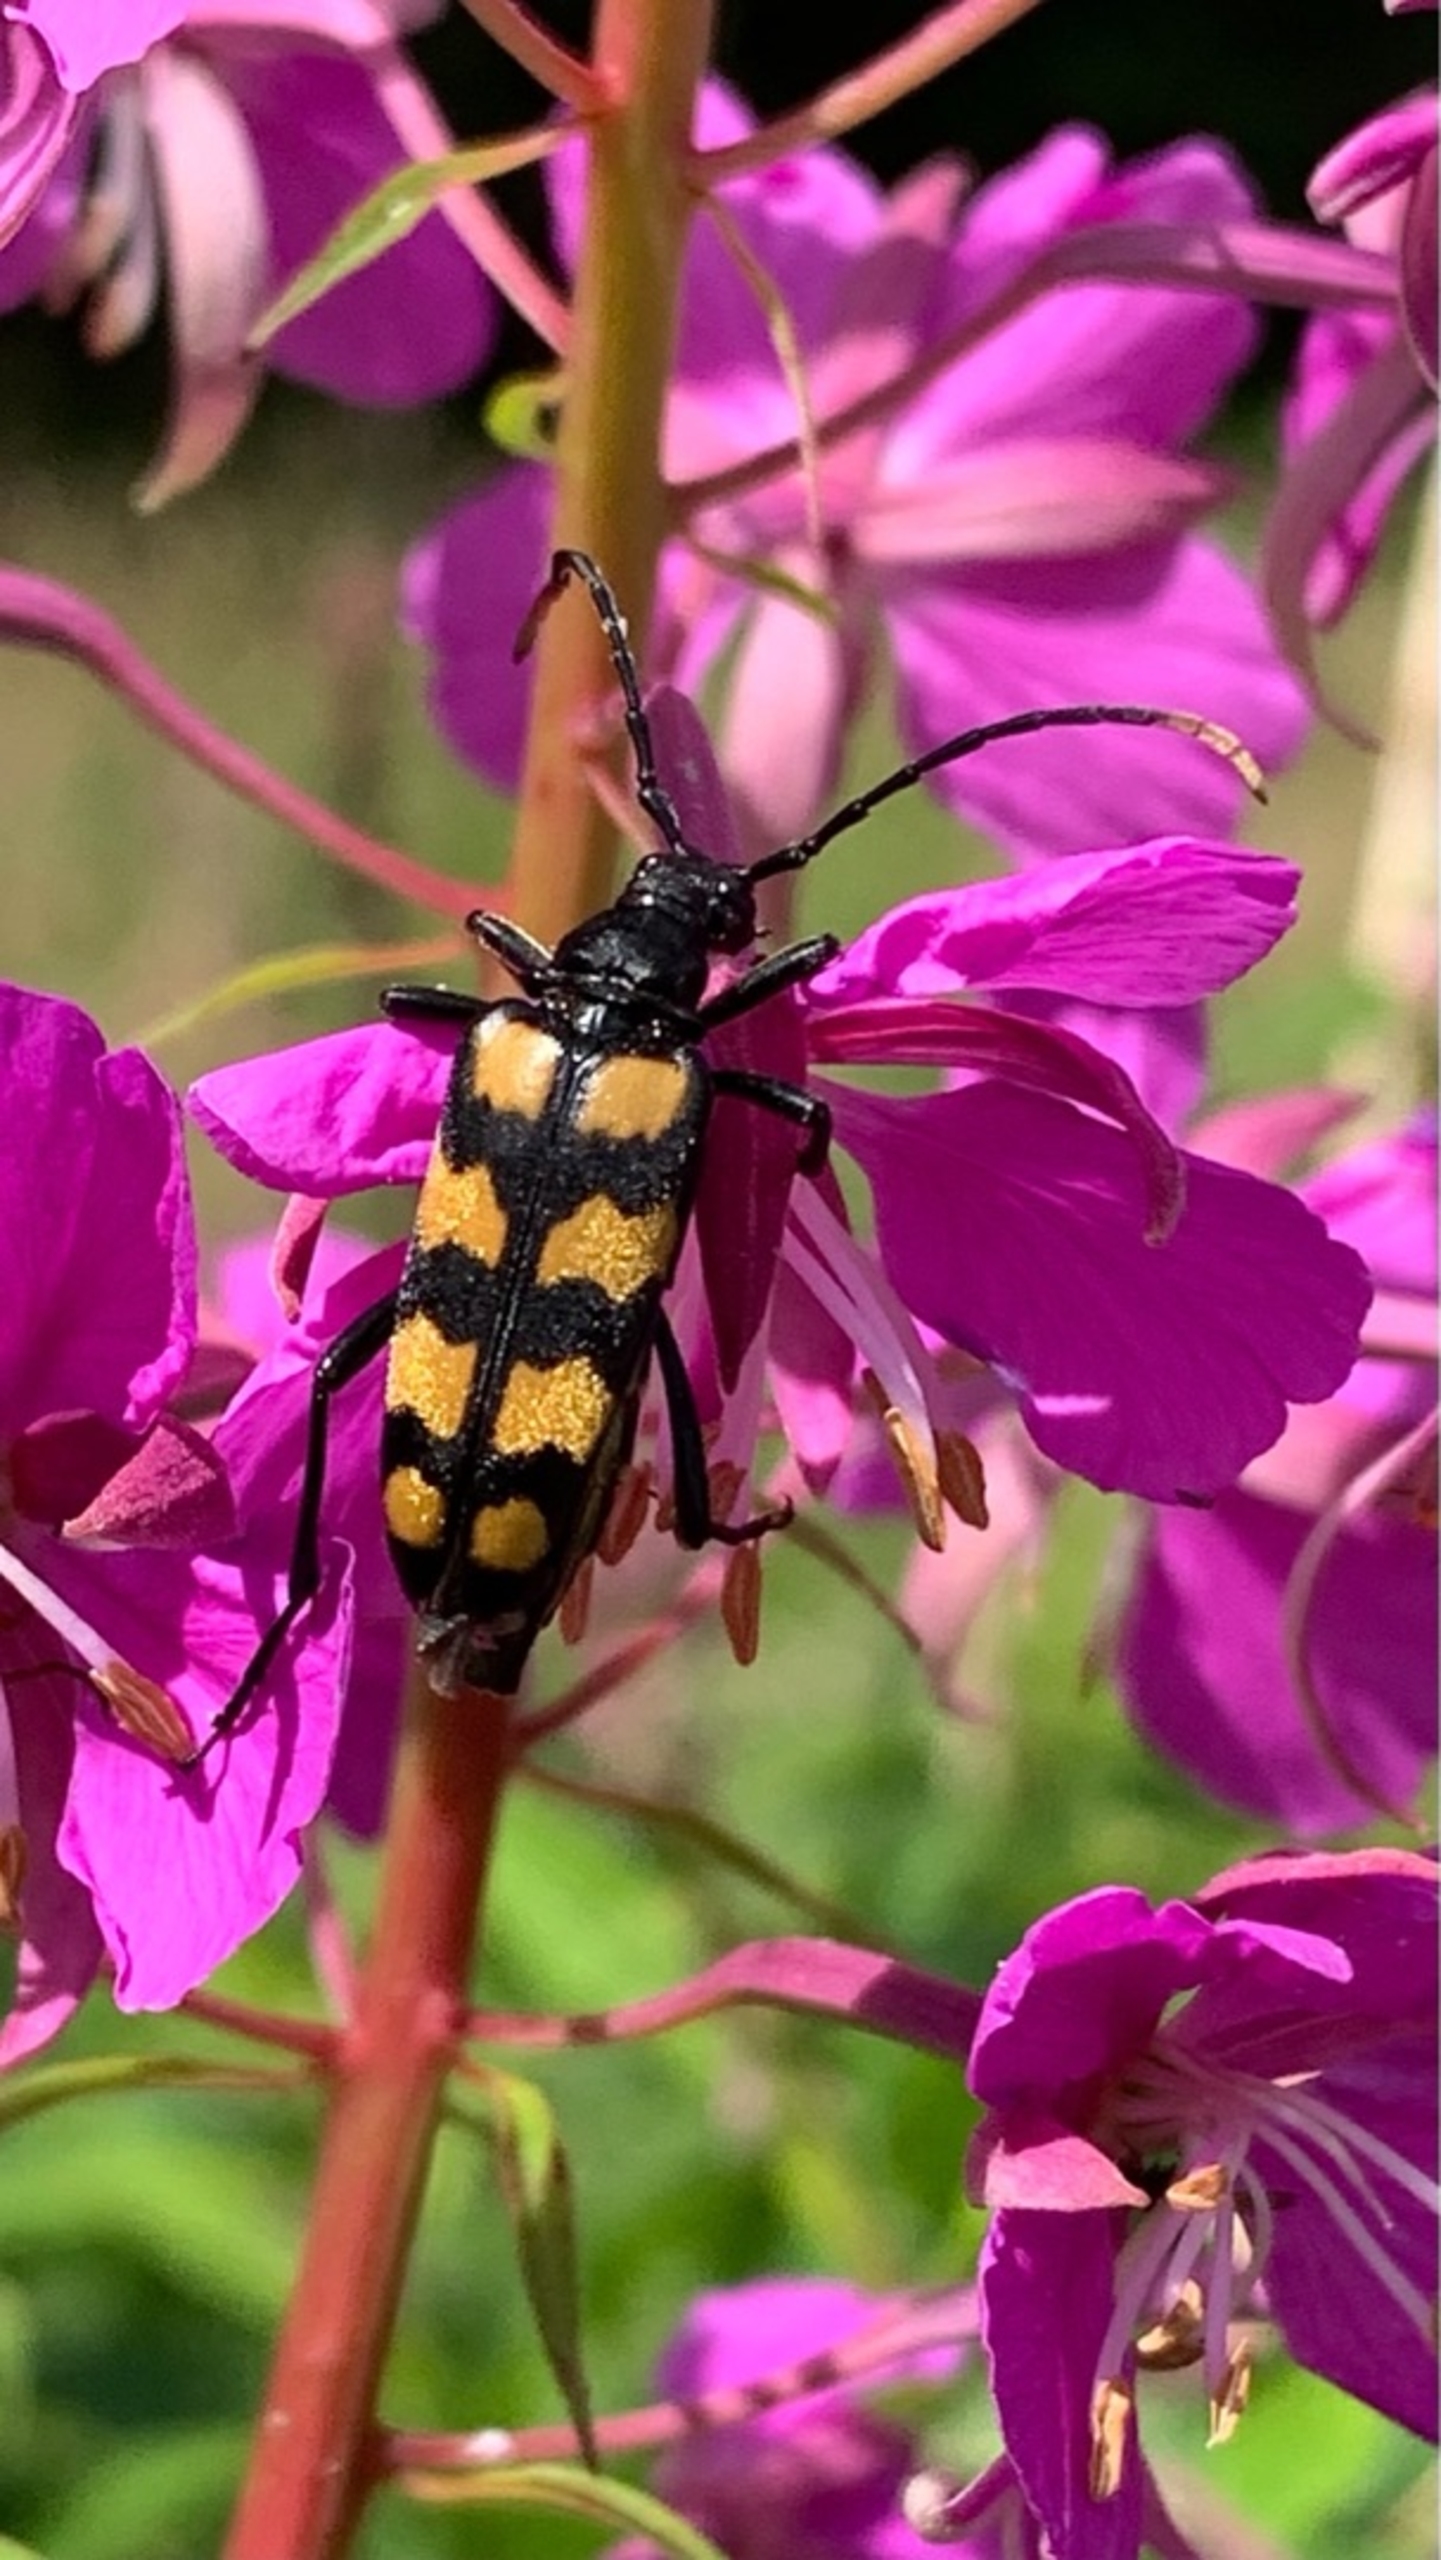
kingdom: Animalia
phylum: Arthropoda
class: Insecta
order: Coleoptera
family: Cerambycidae
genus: Leptura
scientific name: Leptura quadrifasciata
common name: Firebåndet blomsterbuk
